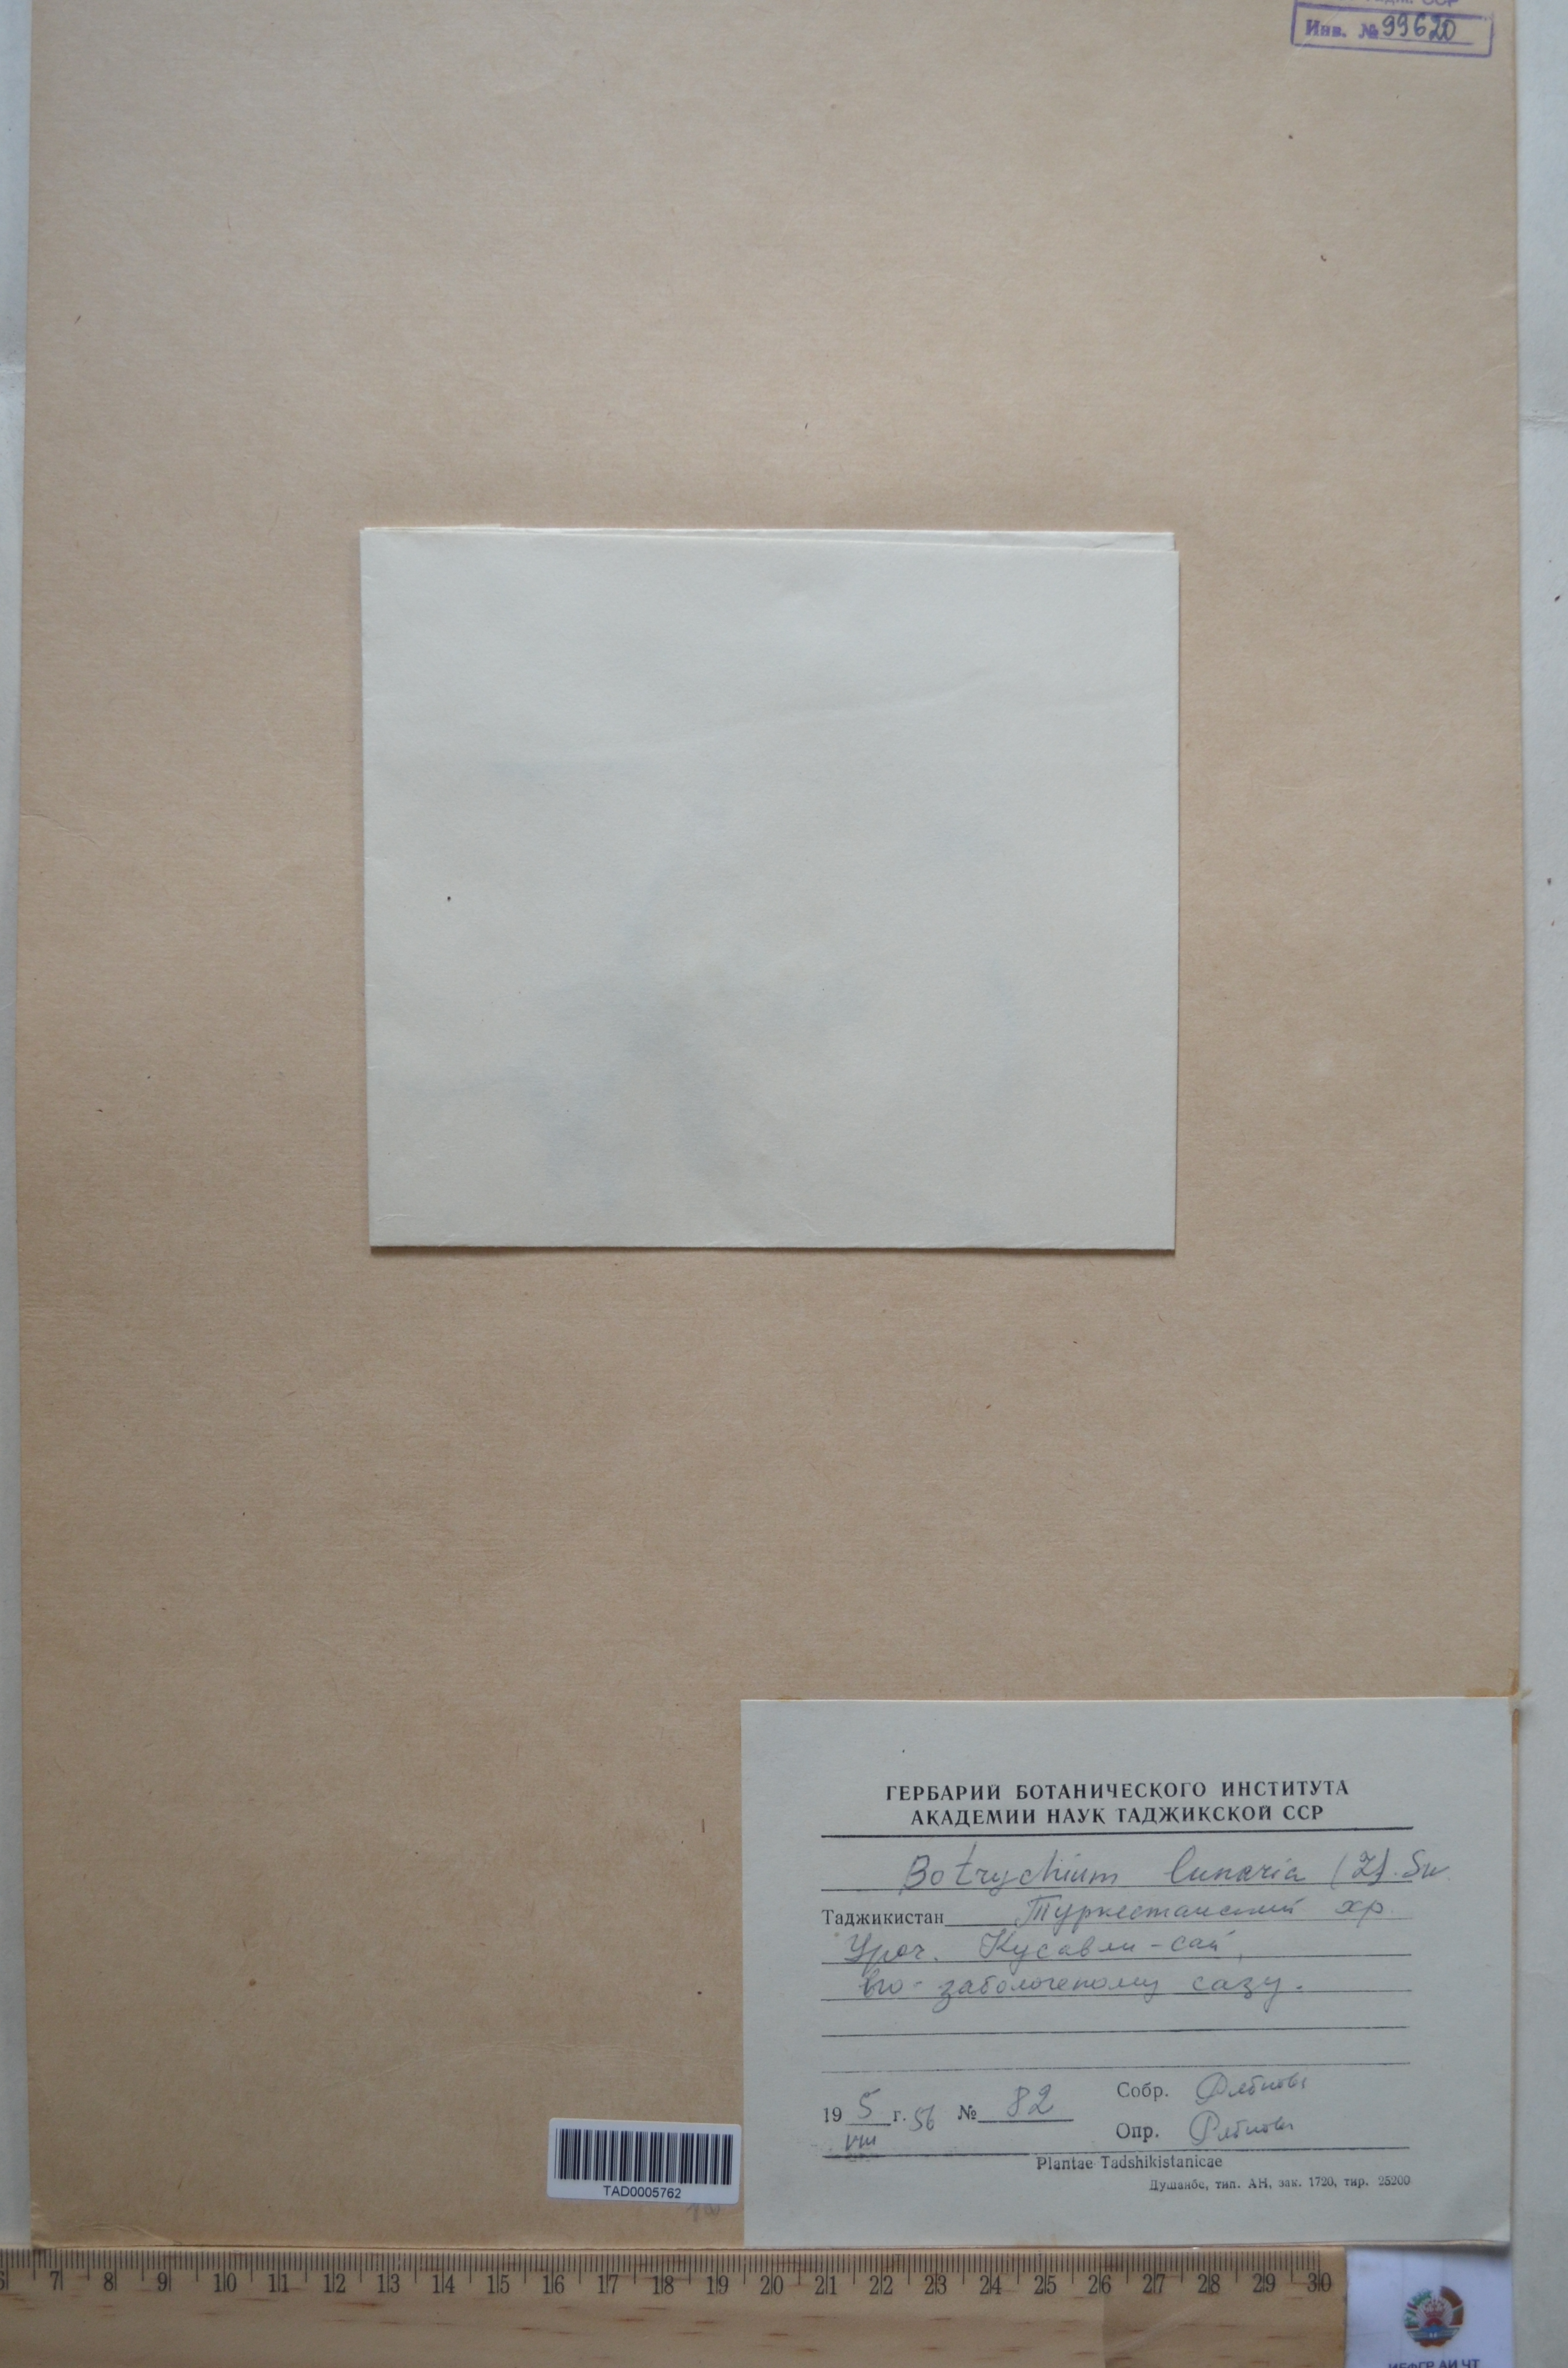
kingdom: Plantae
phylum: Tracheophyta
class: Polypodiopsida
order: Ophioglossales
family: Ophioglossaceae
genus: Botrychium
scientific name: Botrychium lunaria
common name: Moonwort
